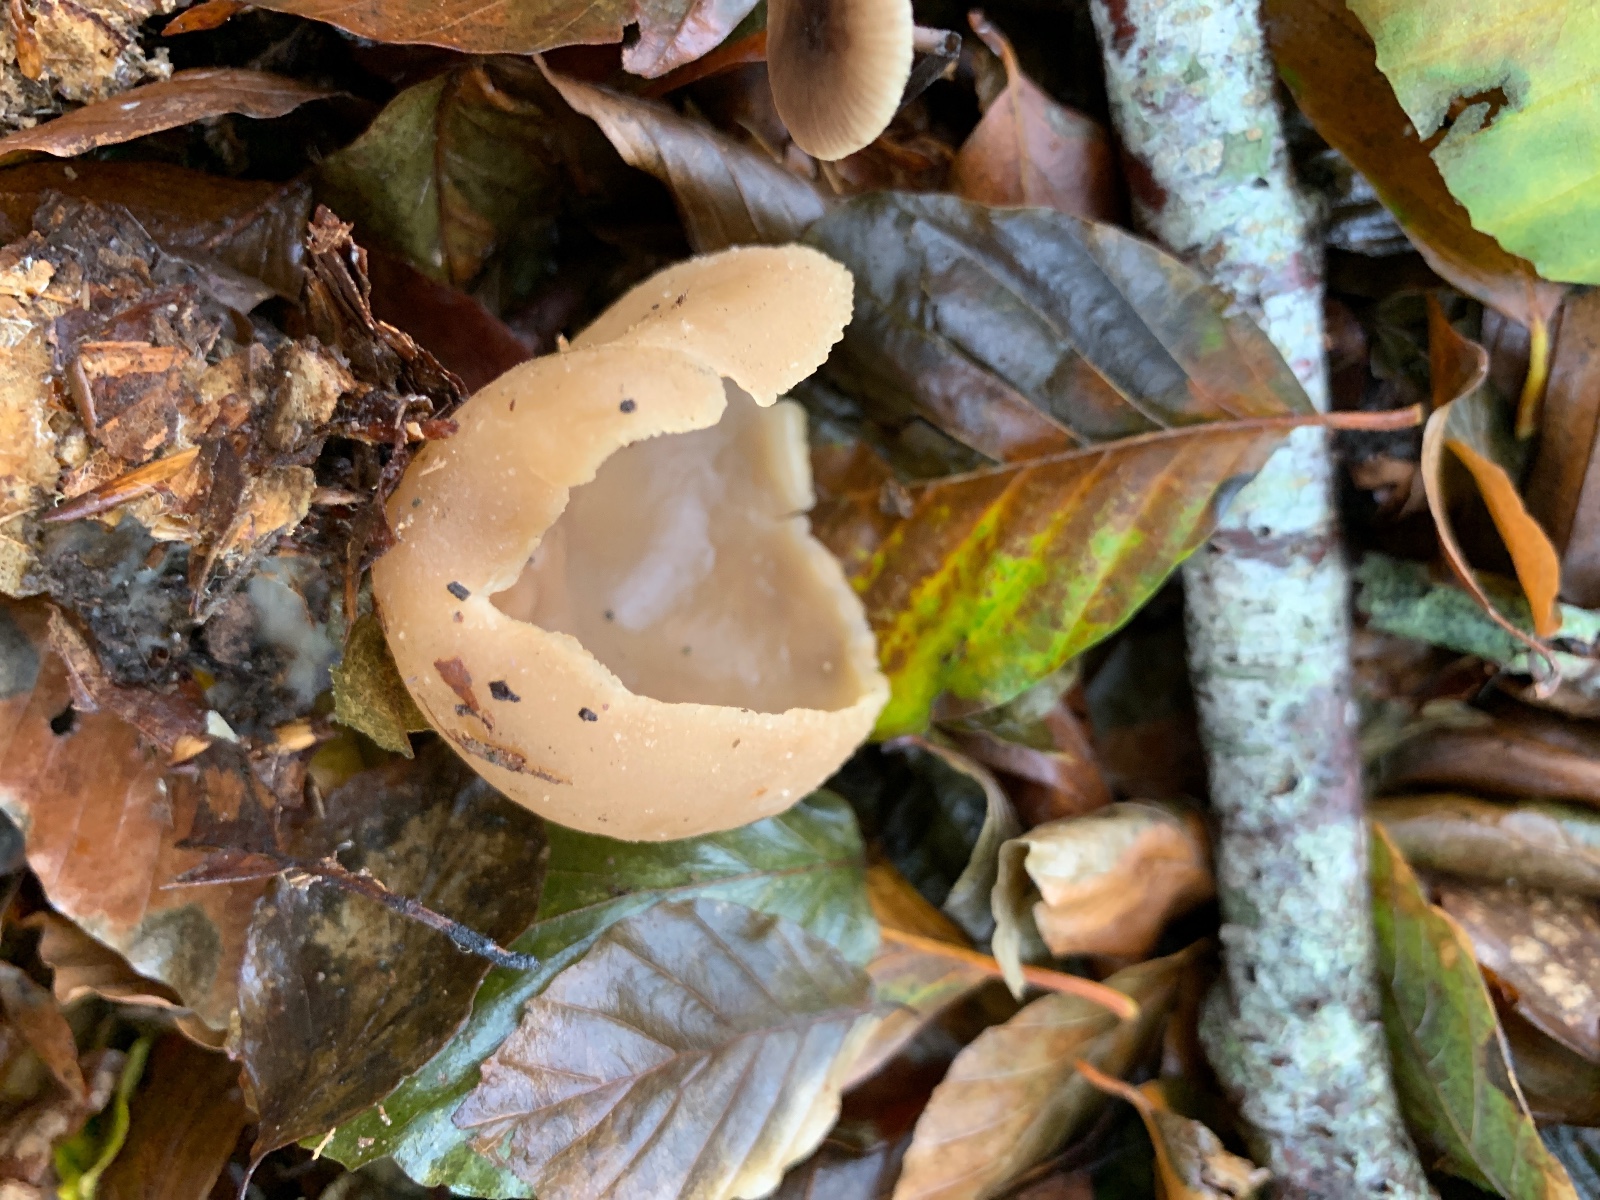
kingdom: Fungi
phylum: Ascomycota
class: Pezizomycetes
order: Pezizales
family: Pezizaceae
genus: Peziza
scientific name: Peziza arvernensis
